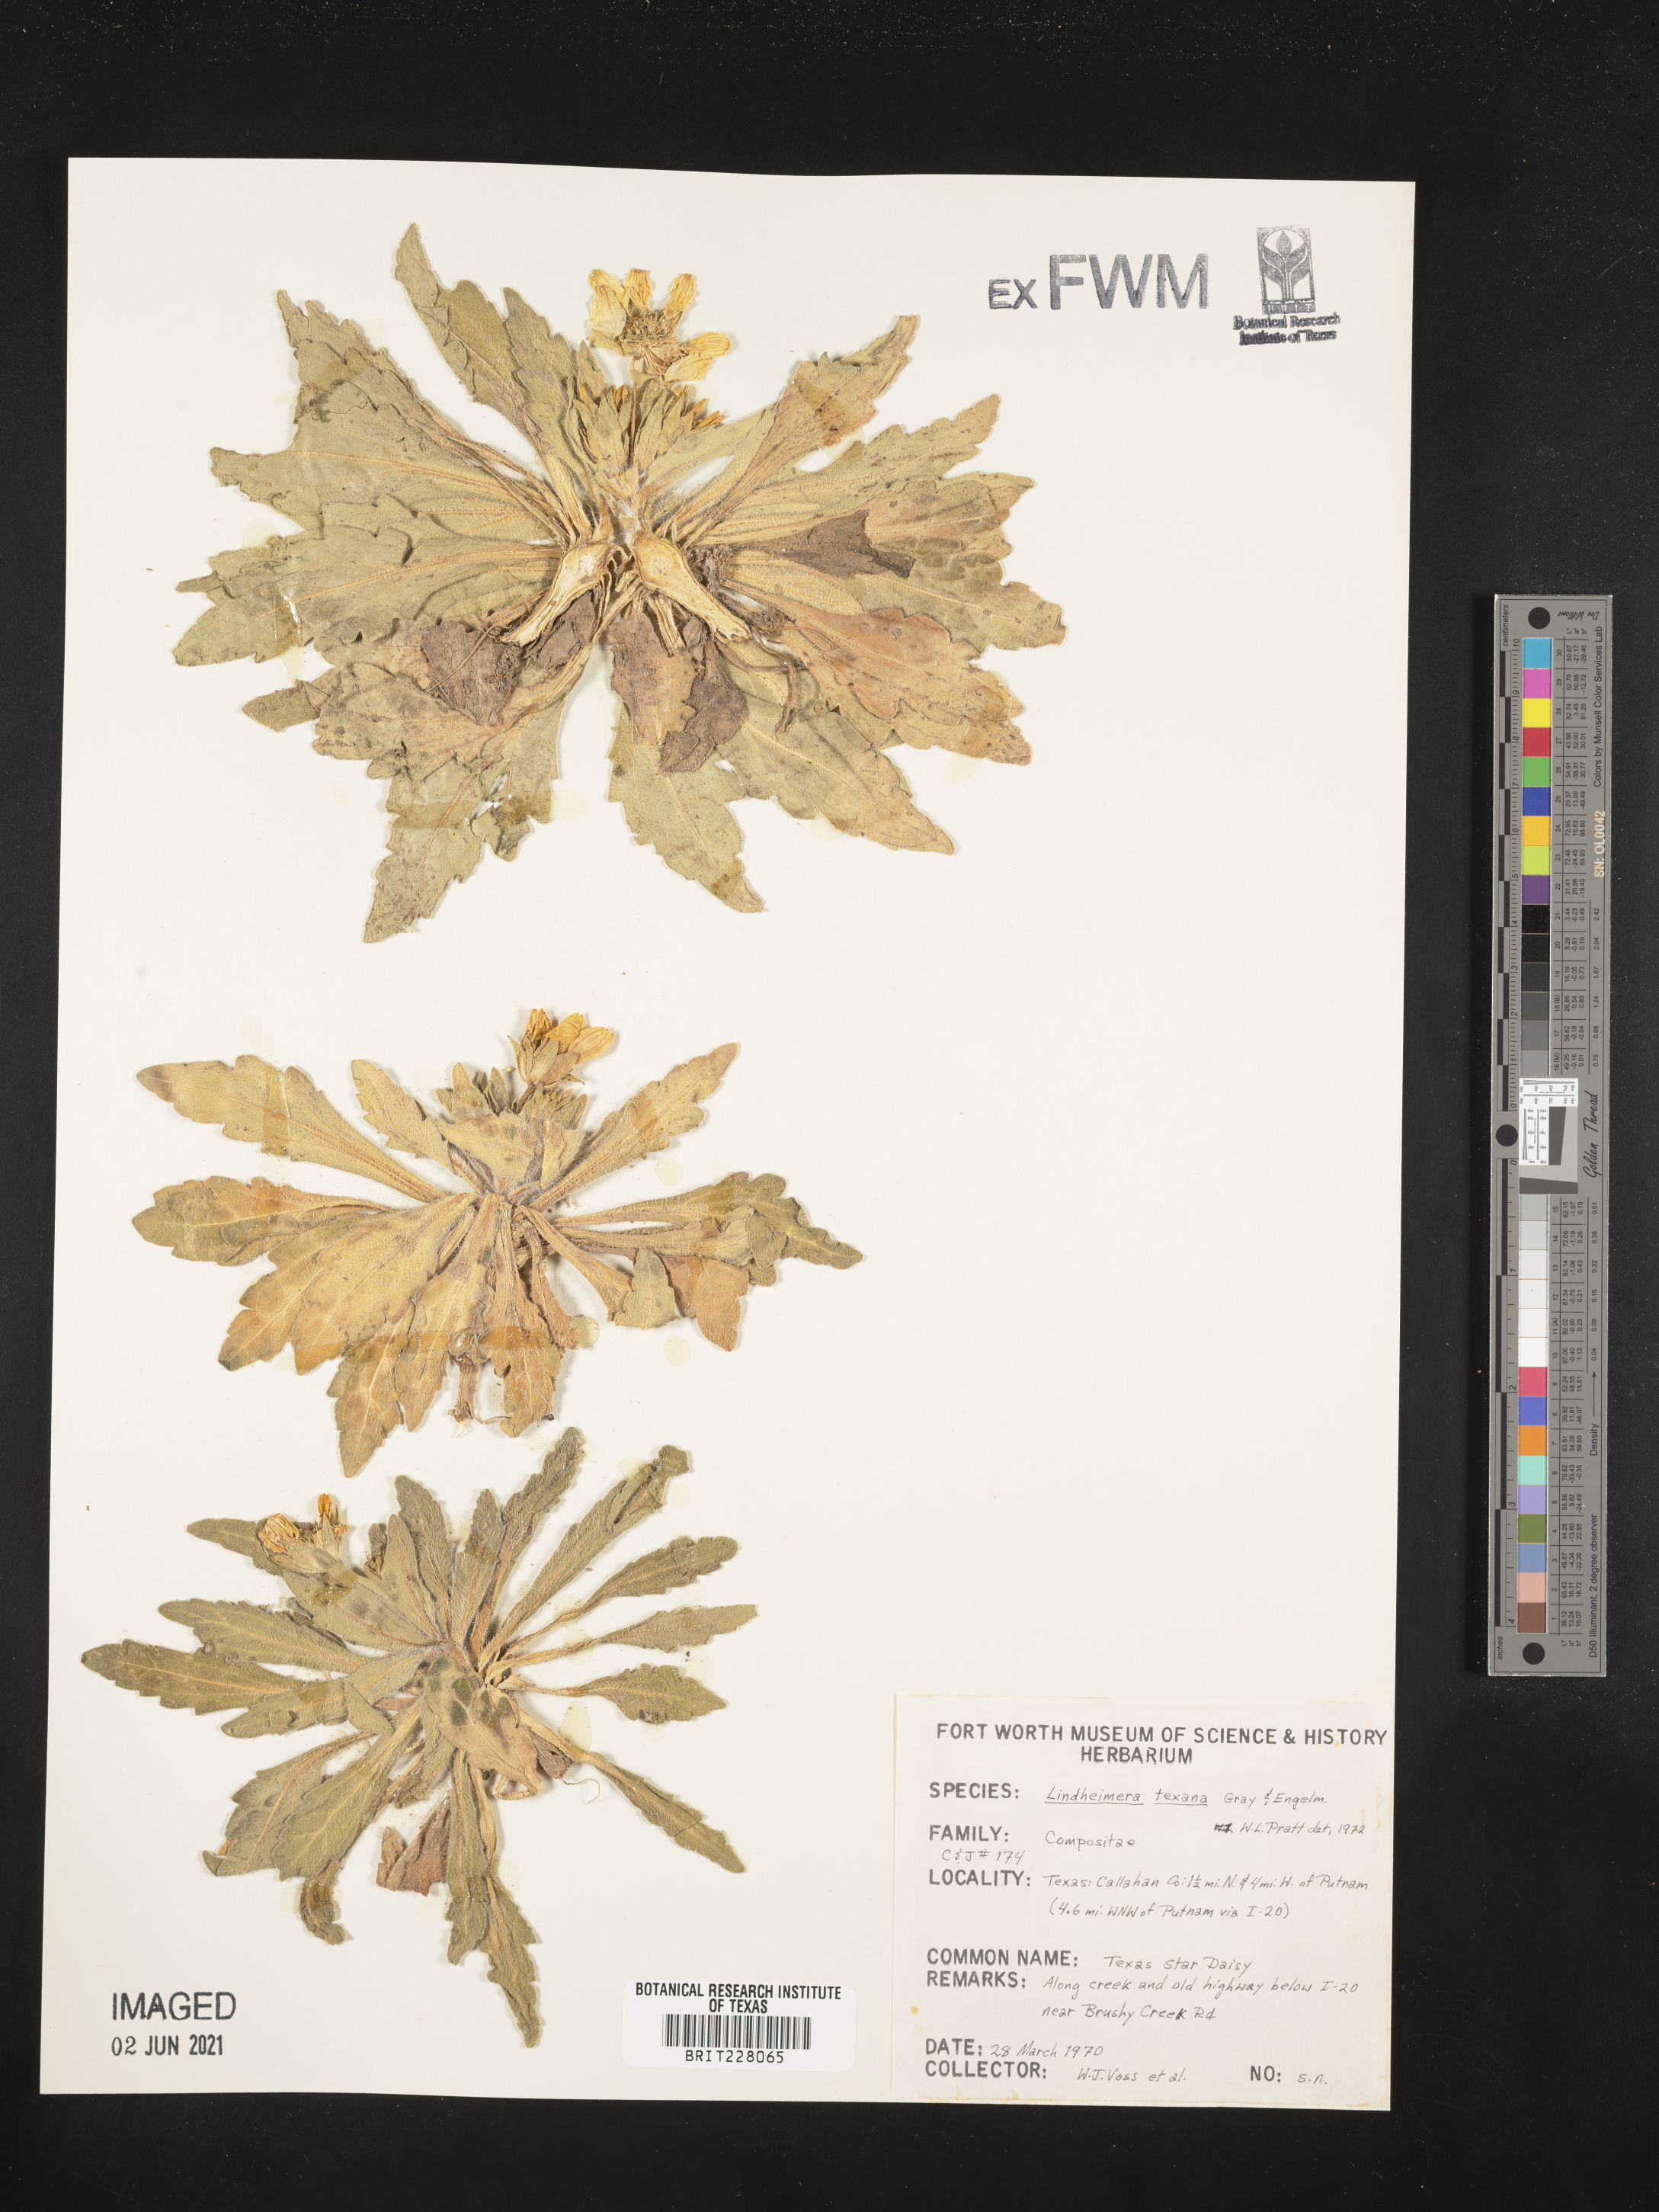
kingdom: Plantae
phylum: Tracheophyta
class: Magnoliopsida
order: Asterales
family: Asteraceae
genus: Lindheimera
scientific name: Lindheimera texana
